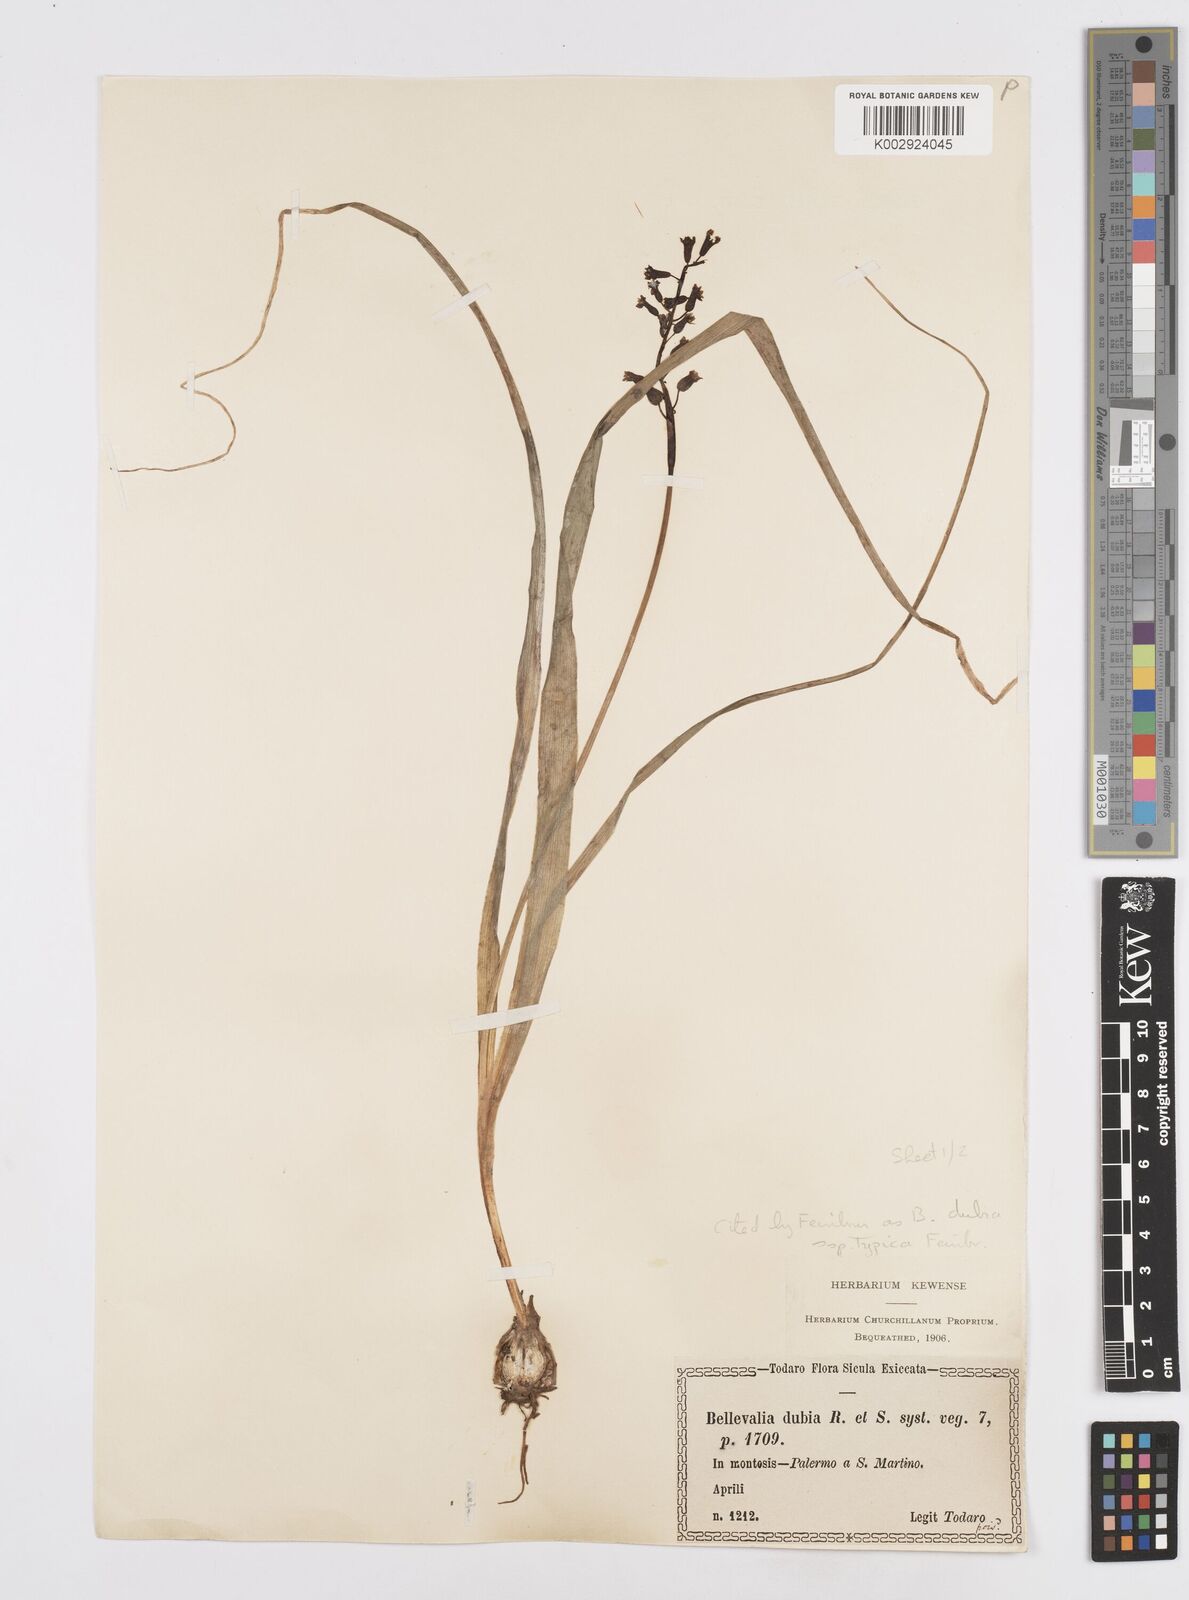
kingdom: Plantae
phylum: Tracheophyta
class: Liliopsida
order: Asparagales
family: Asparagaceae
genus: Bellevalia
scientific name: Bellevalia dubia
